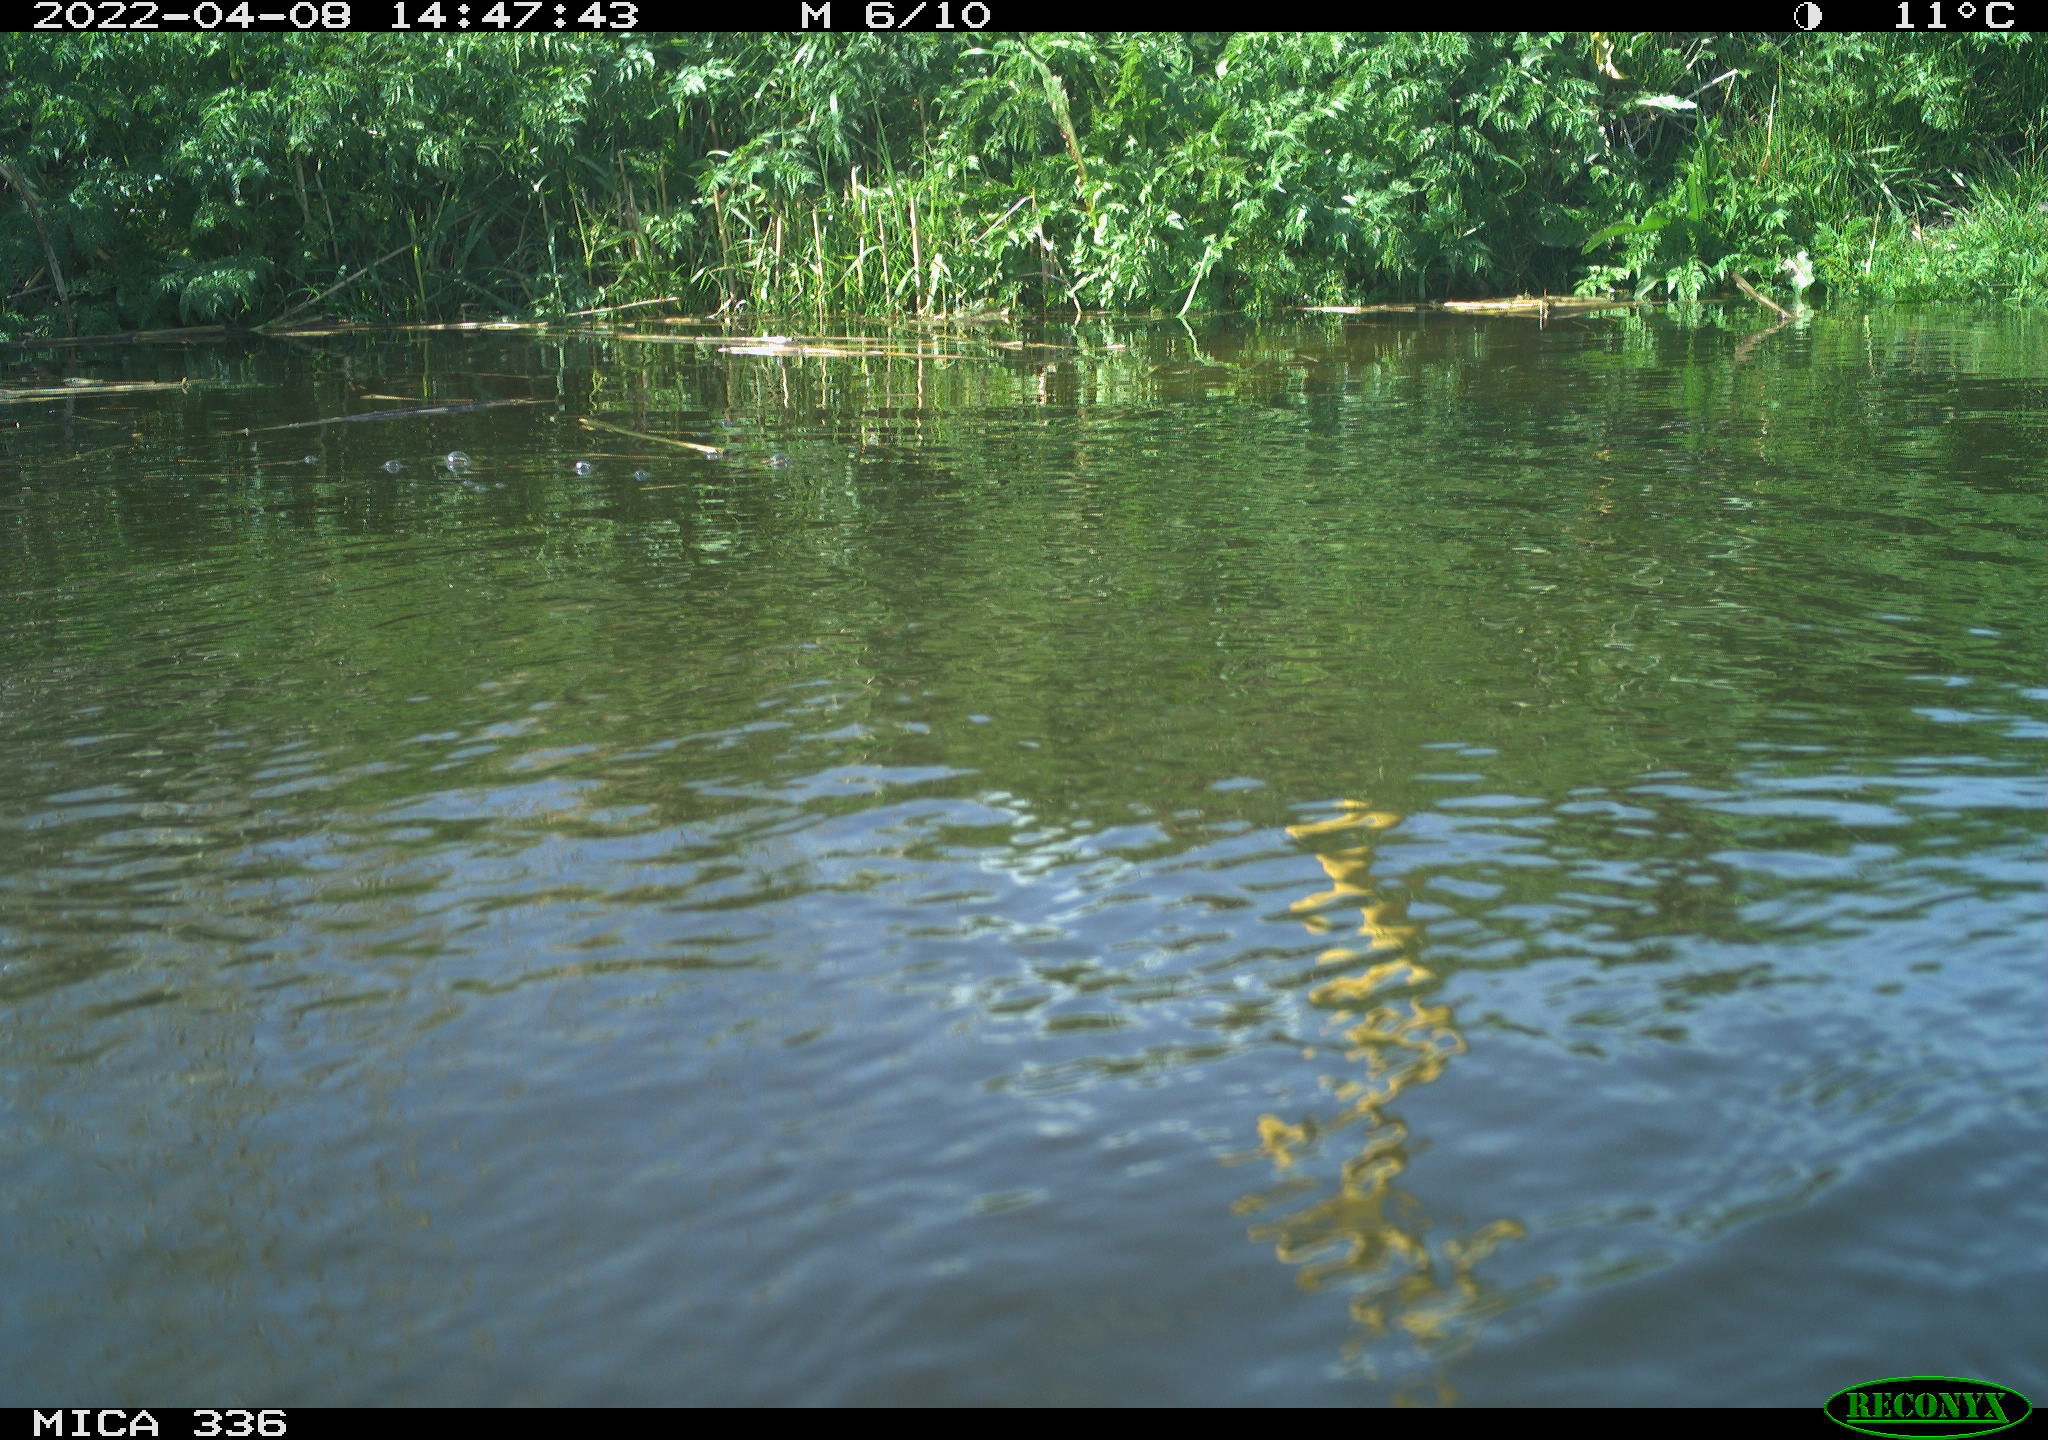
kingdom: Animalia
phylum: Chordata
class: Aves
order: Podicipediformes
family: Podicipedidae
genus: Podiceps
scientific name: Podiceps cristatus
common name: Great crested grebe
